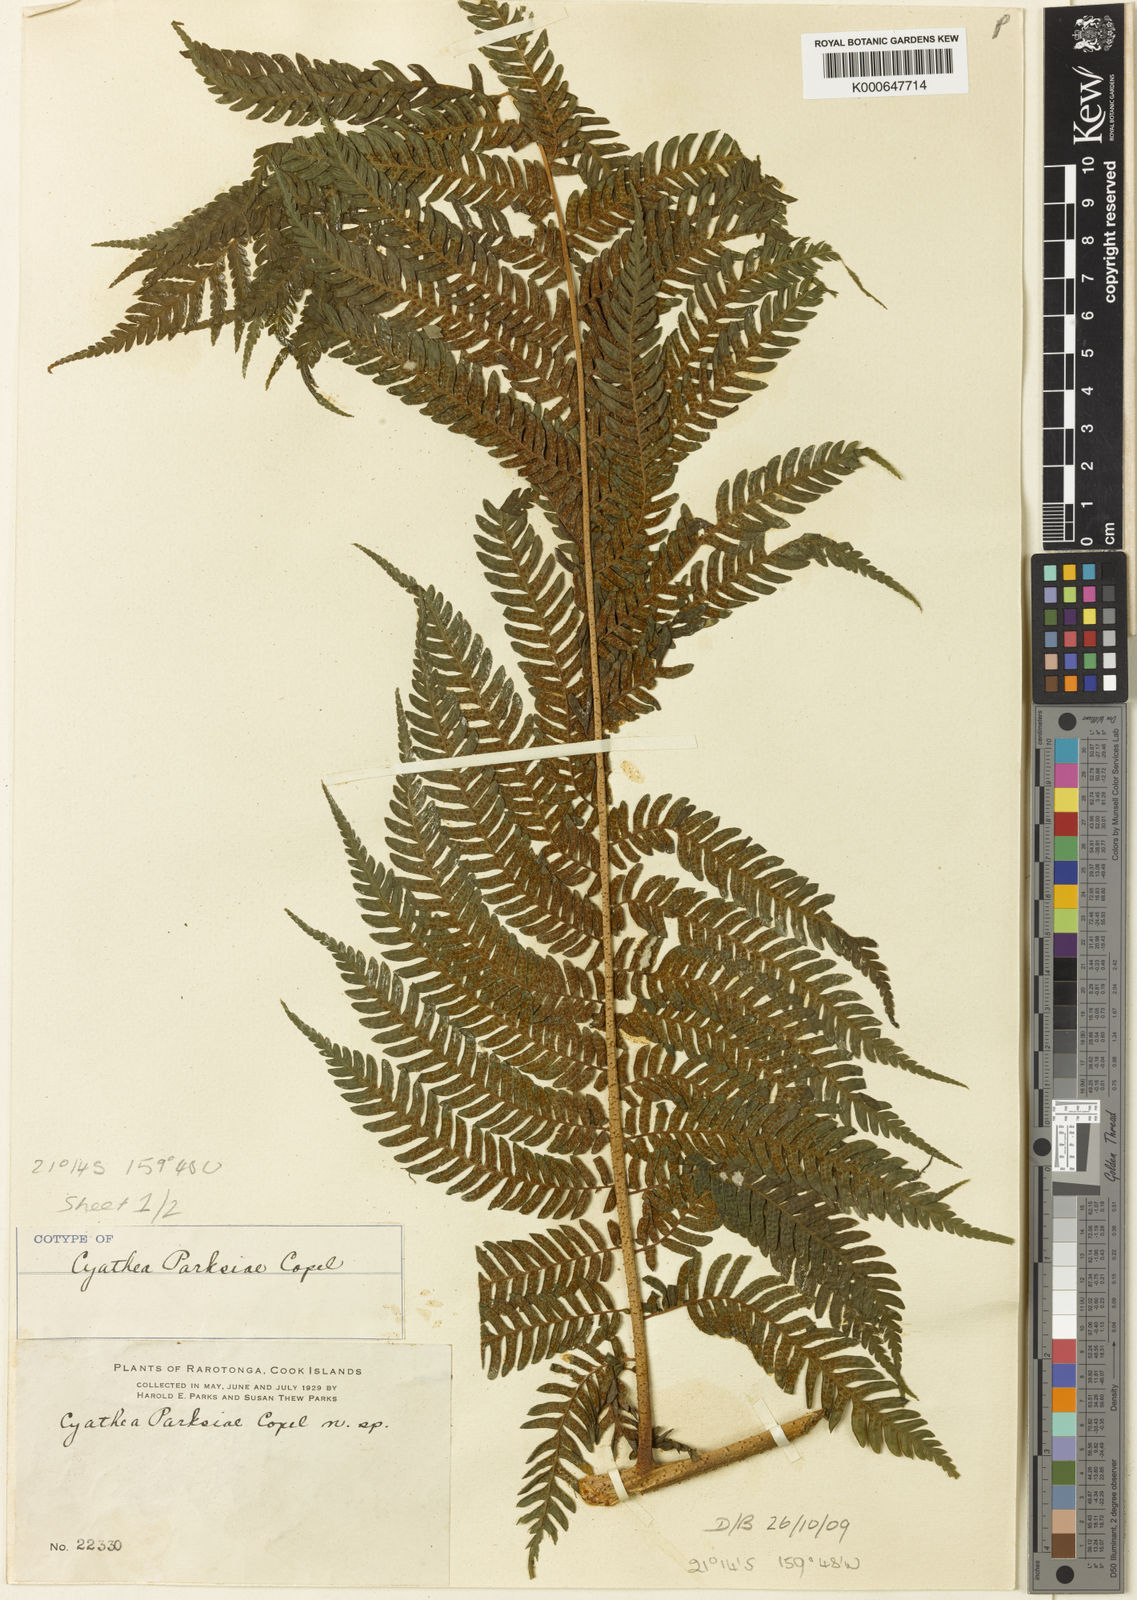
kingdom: Plantae
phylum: Tracheophyta
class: Polypodiopsida
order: Cyatheales
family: Cyatheaceae
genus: Sphaeropteris
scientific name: Sphaeropteris parksiae
